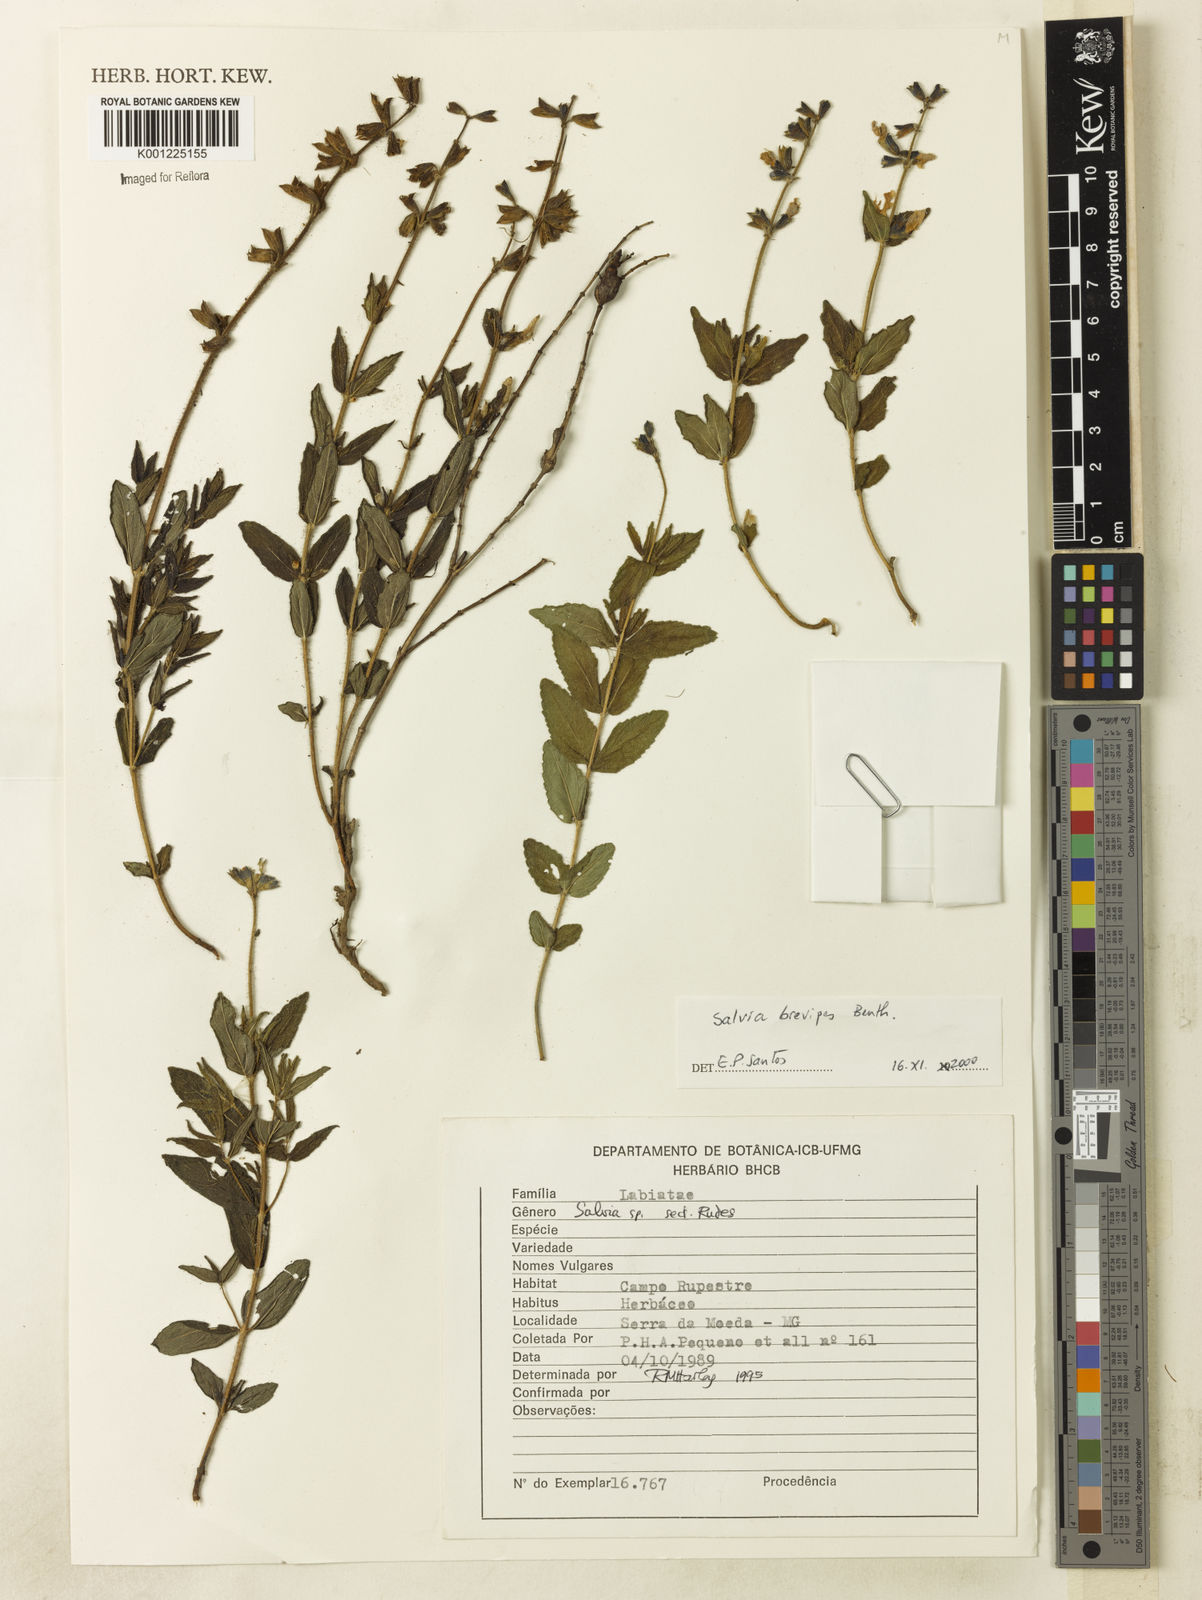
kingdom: Plantae
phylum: Tracheophyta
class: Magnoliopsida
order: Lamiales
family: Lamiaceae
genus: Salvia
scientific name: Salvia brevipes
